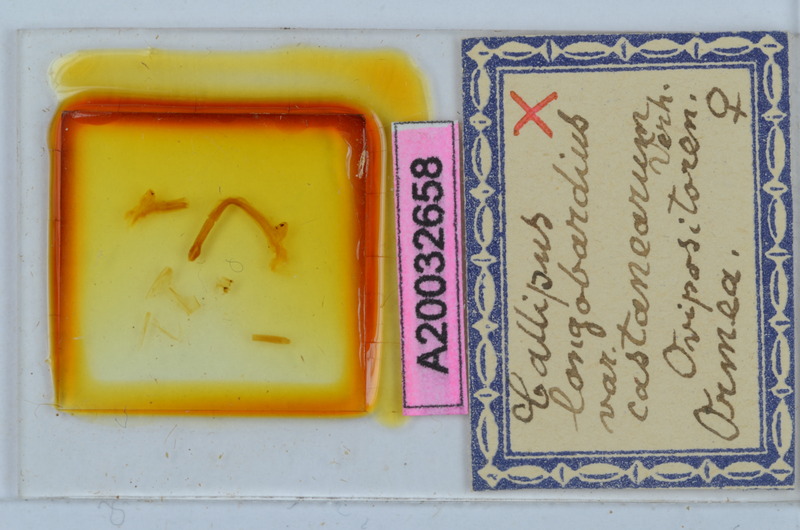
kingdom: Animalia
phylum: Arthropoda
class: Diplopoda
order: Callipodida
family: Callipodidae
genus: Callipus
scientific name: Callipus foetidissimus
